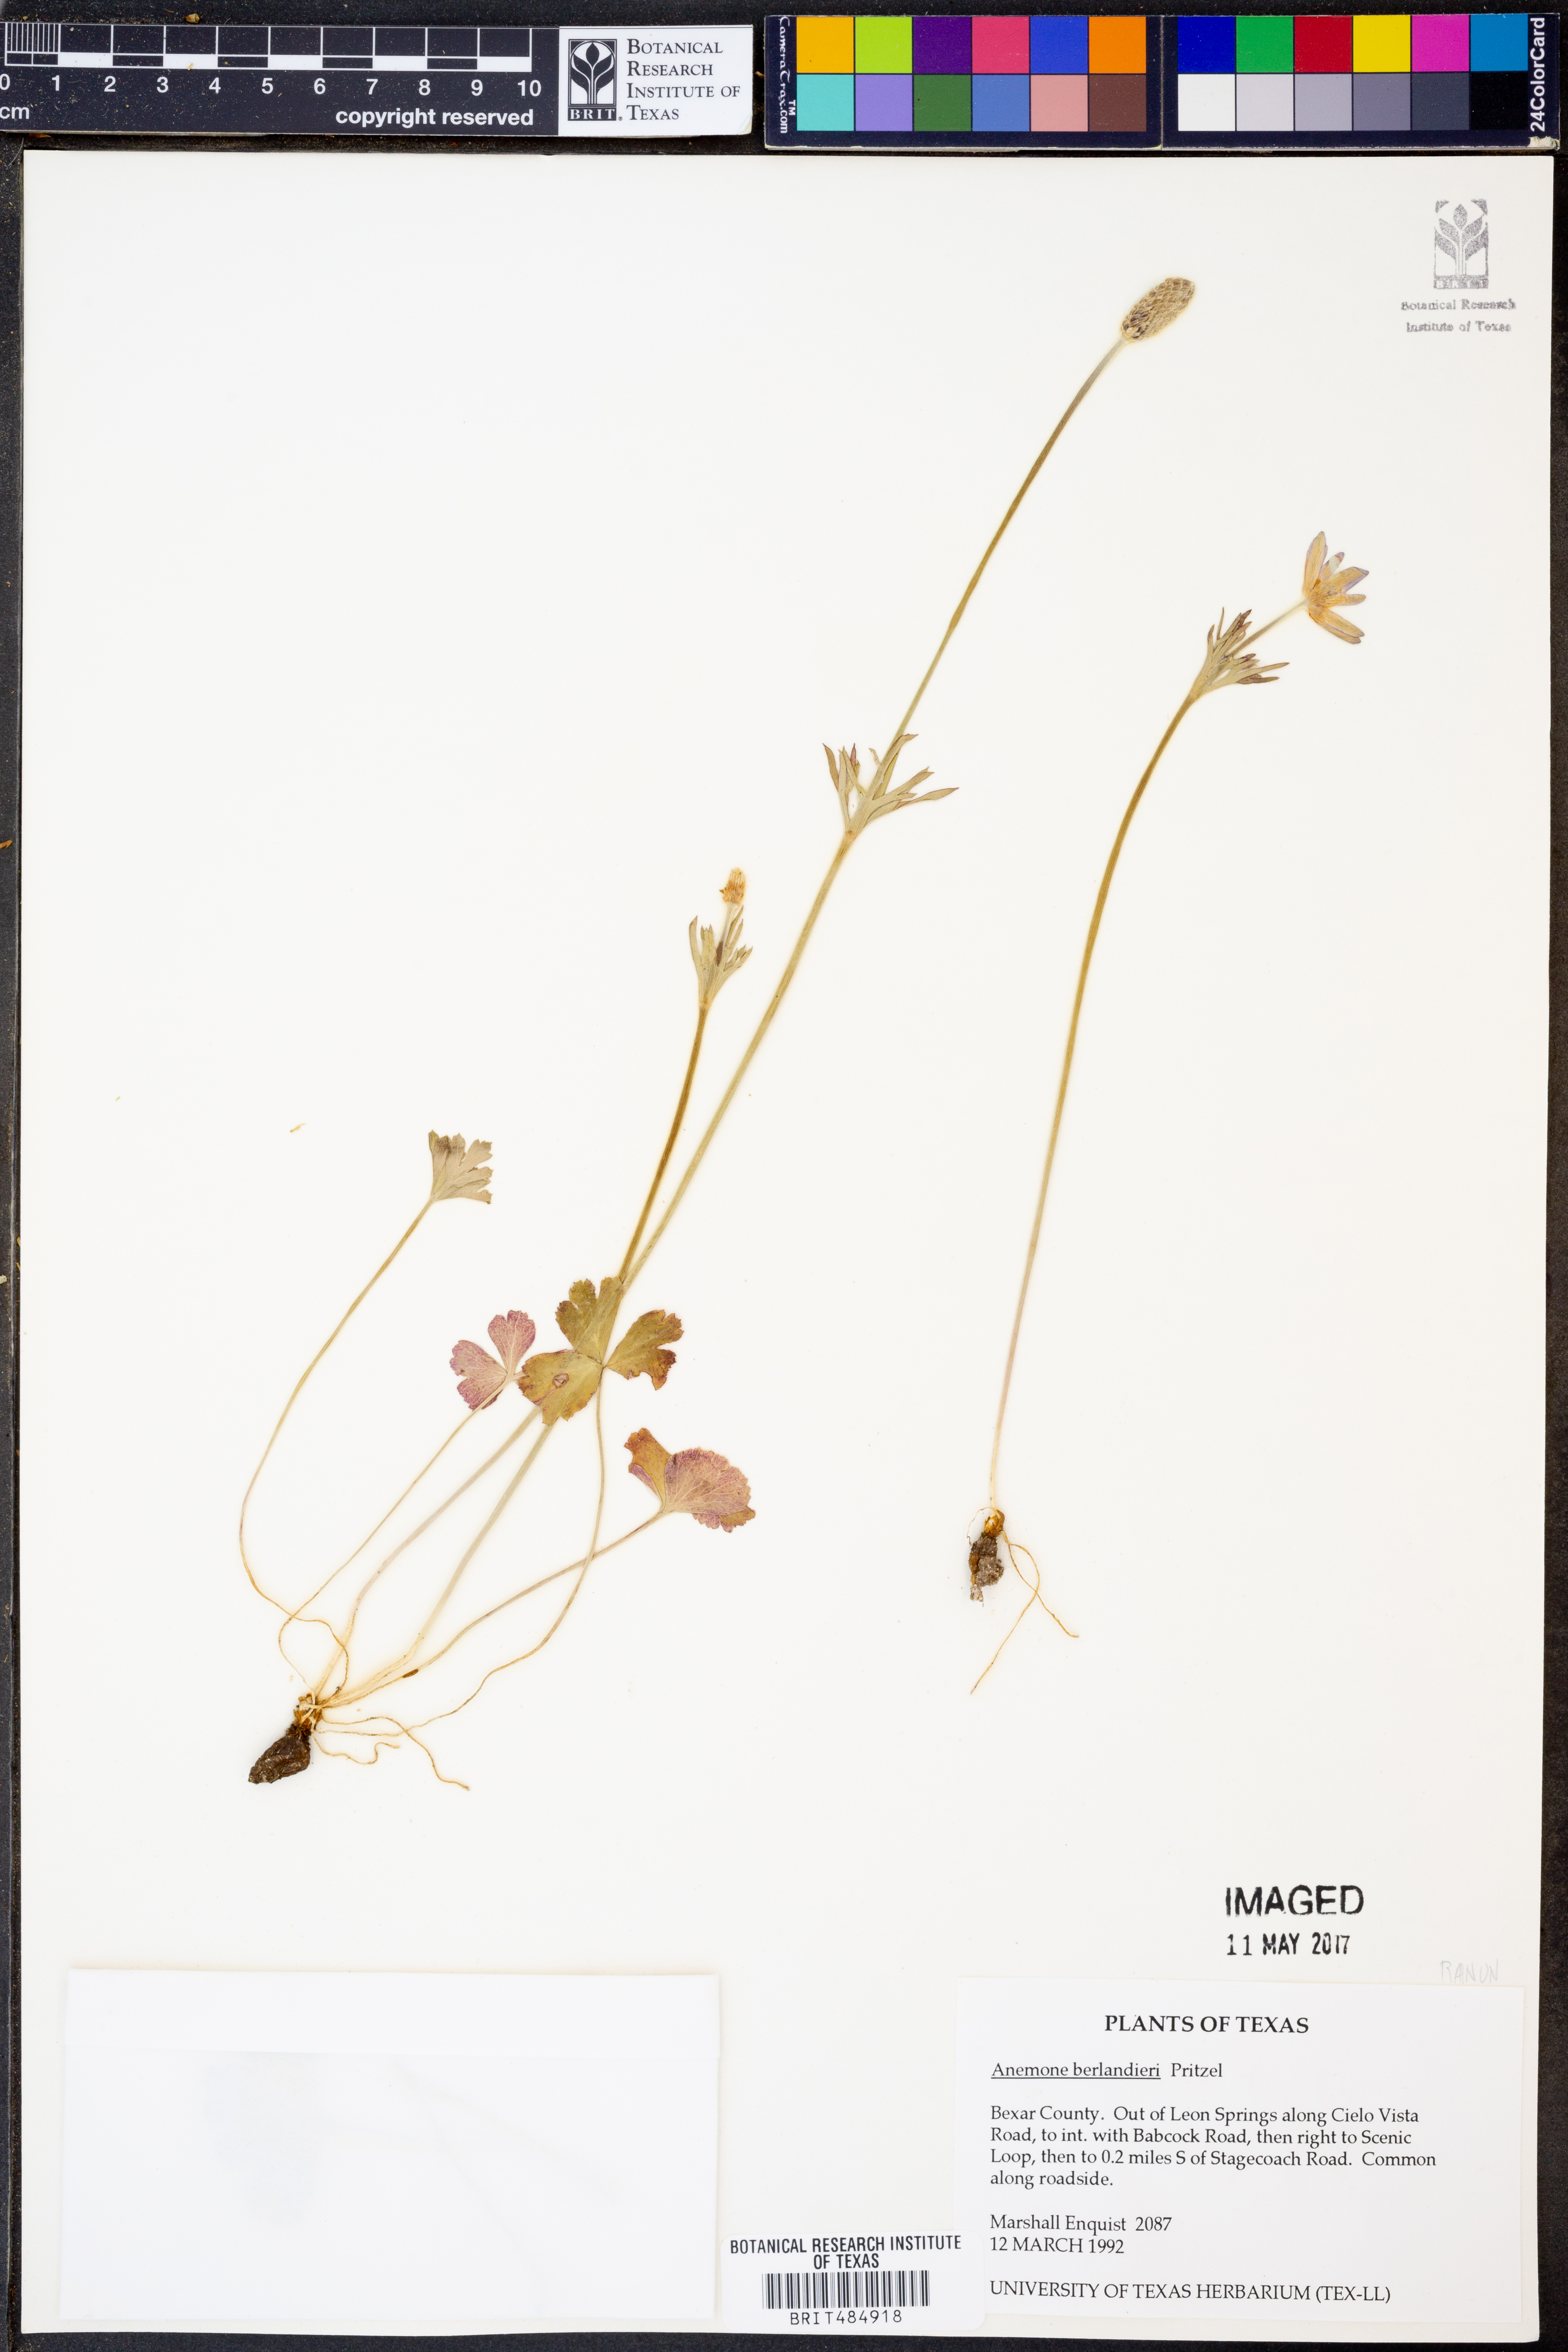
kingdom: Plantae
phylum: Tracheophyta
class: Magnoliopsida
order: Ranunculales
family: Ranunculaceae
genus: Anemone
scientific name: Anemone berlandieri
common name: Ten-petal anemone
